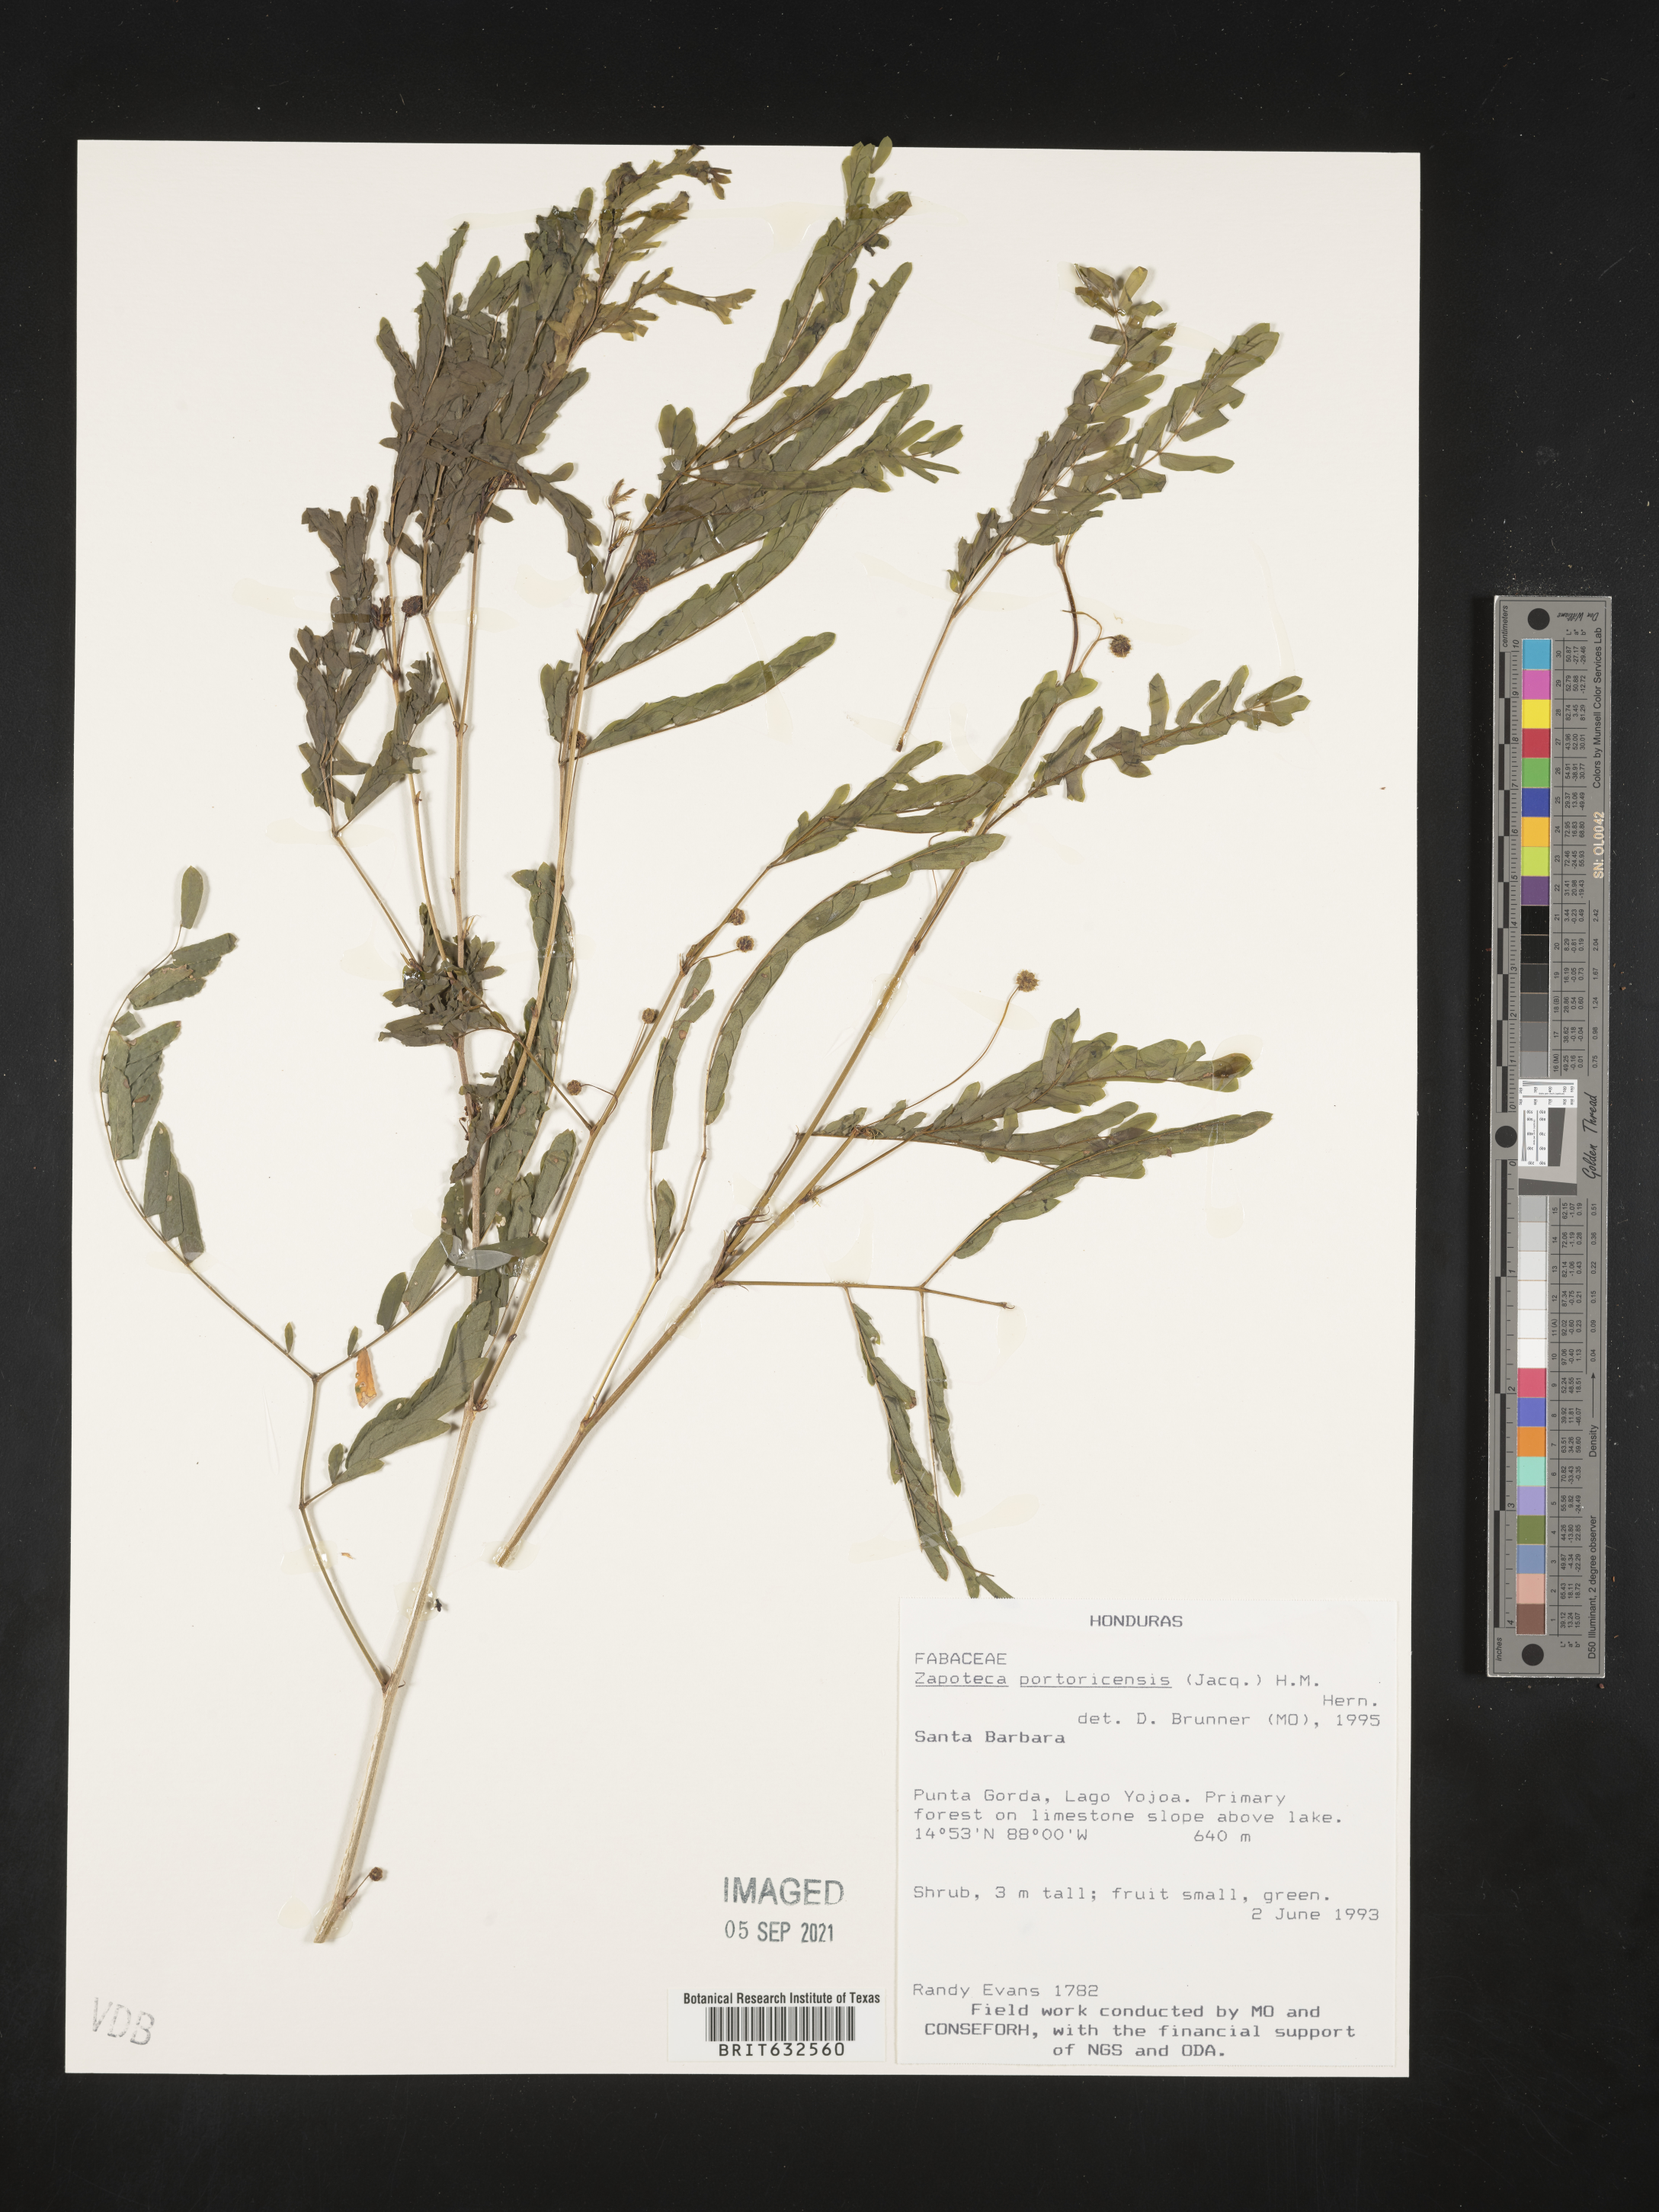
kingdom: Plantae
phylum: Tracheophyta
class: Magnoliopsida
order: Fabales
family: Fabaceae
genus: Zapoteca
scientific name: Zapoteca
